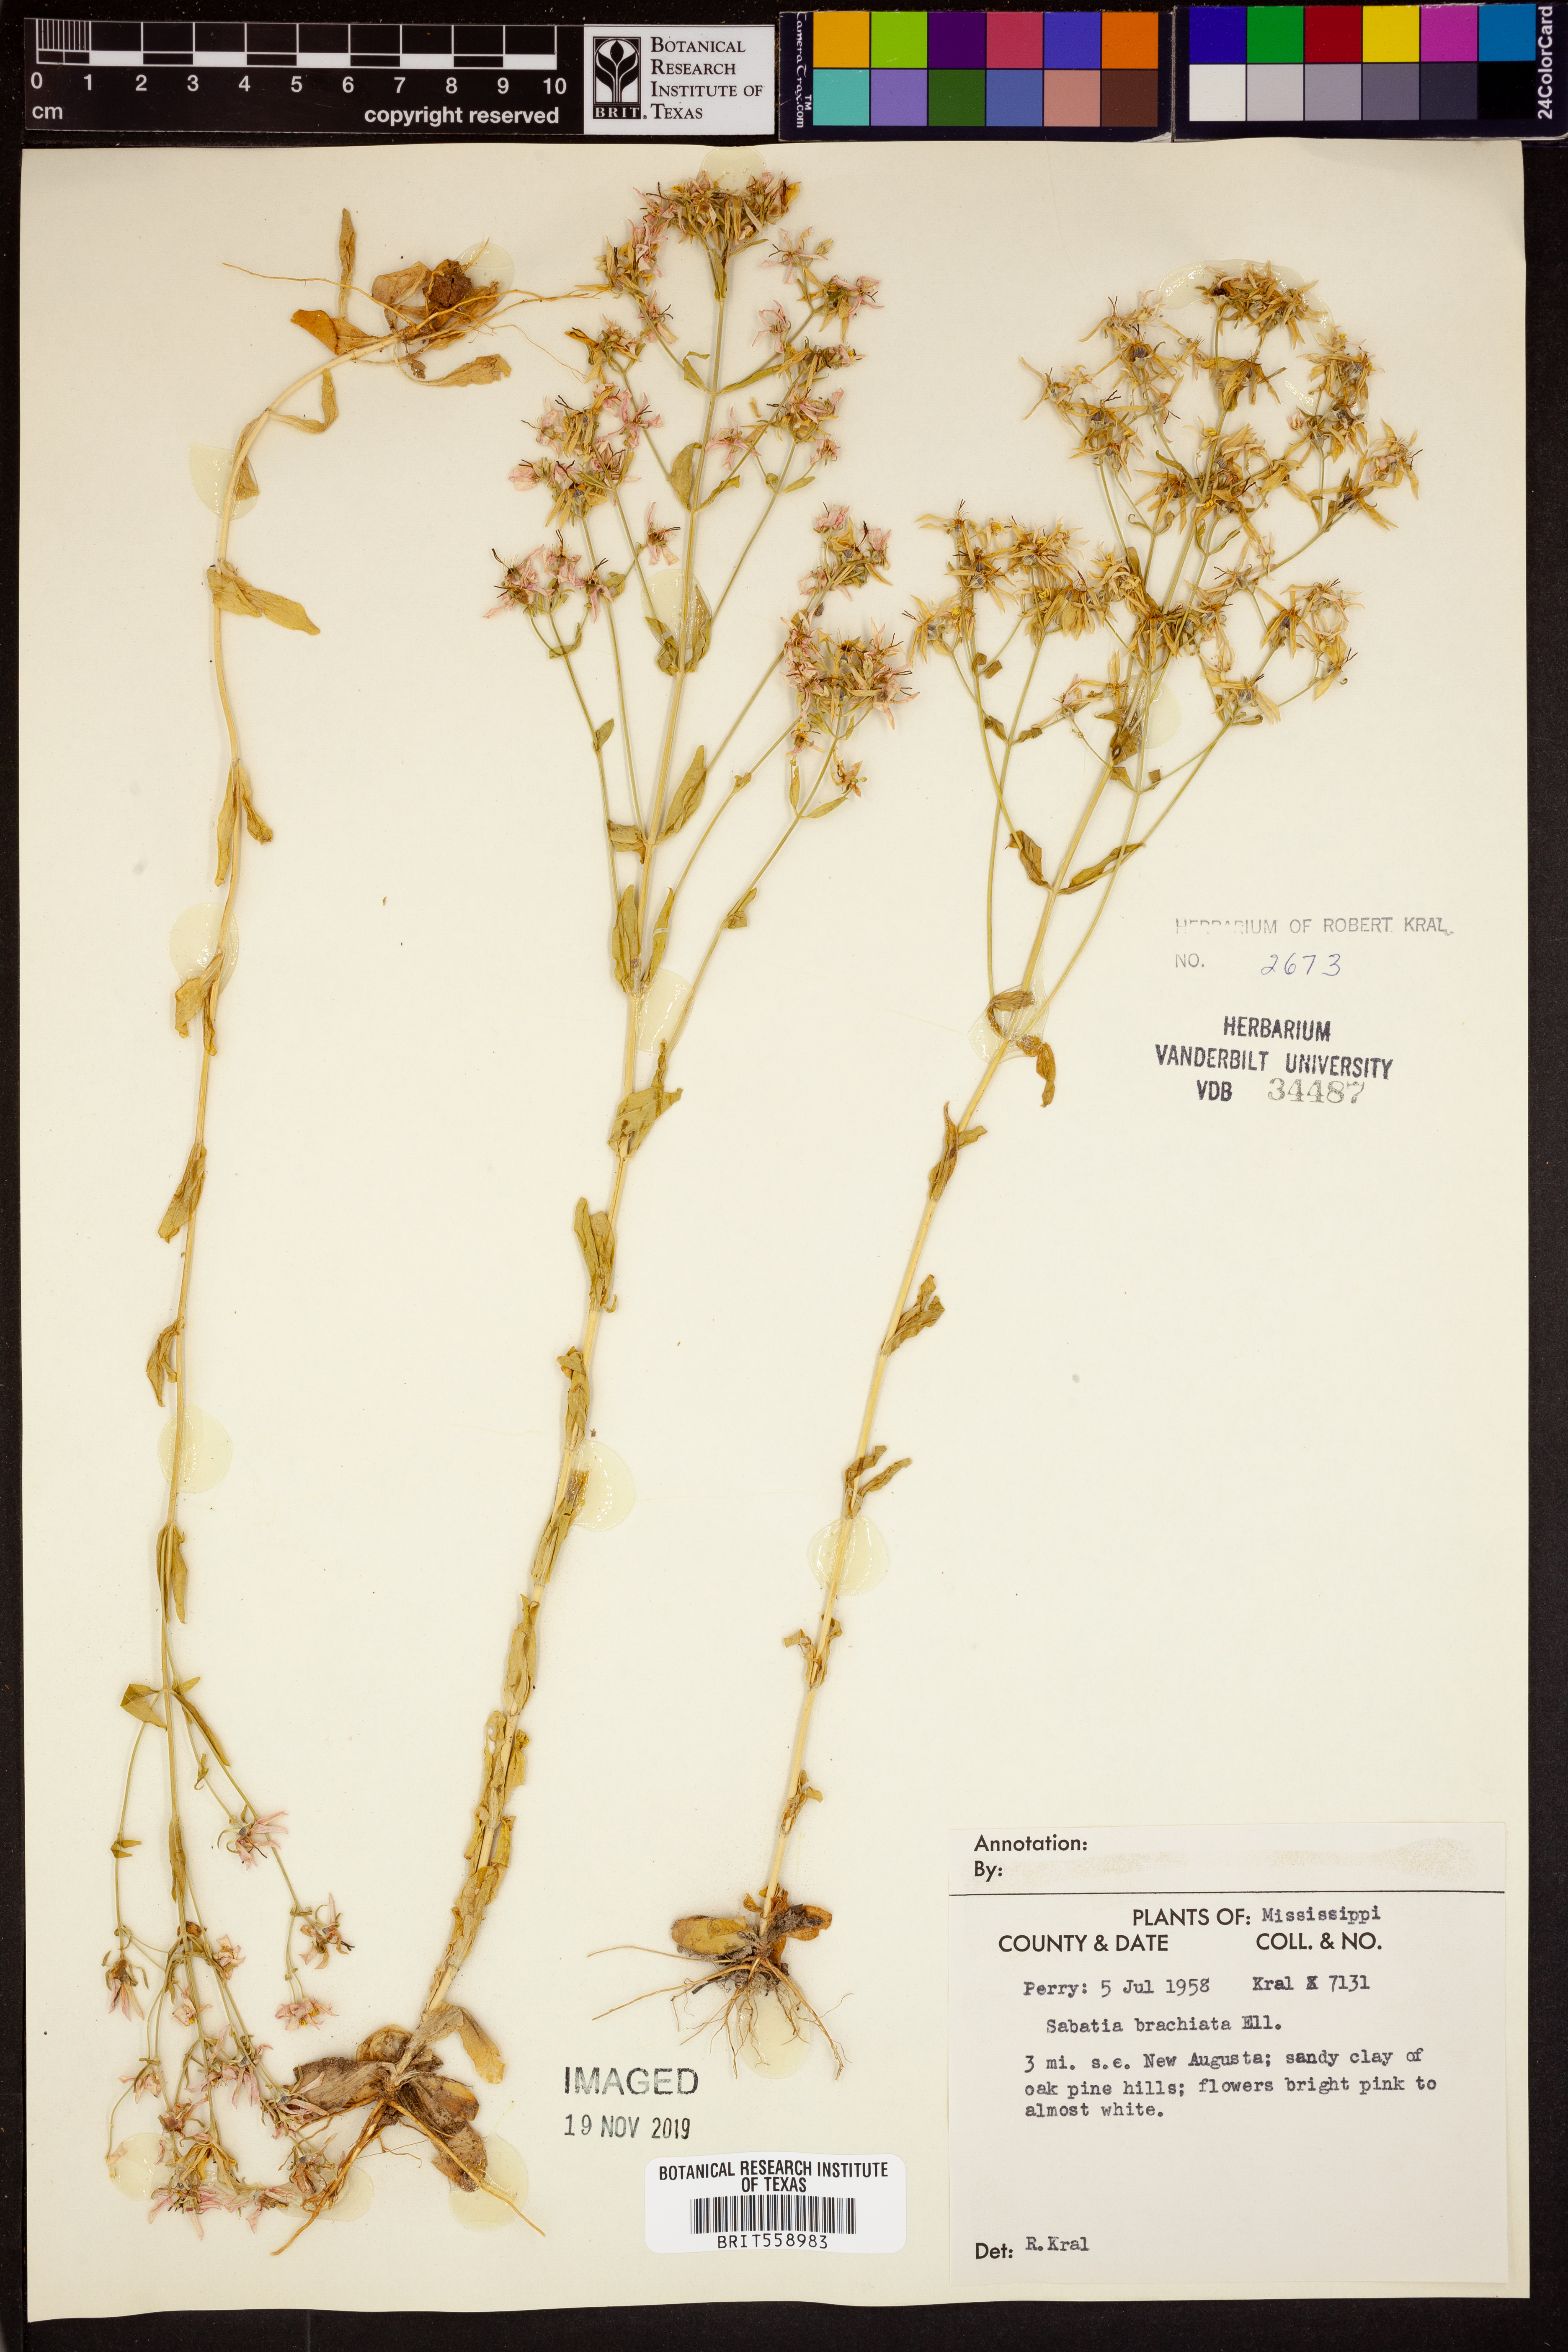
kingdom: Plantae
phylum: Tracheophyta
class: Magnoliopsida
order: Gentianales
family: Gentianaceae
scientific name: Gentianaceae
